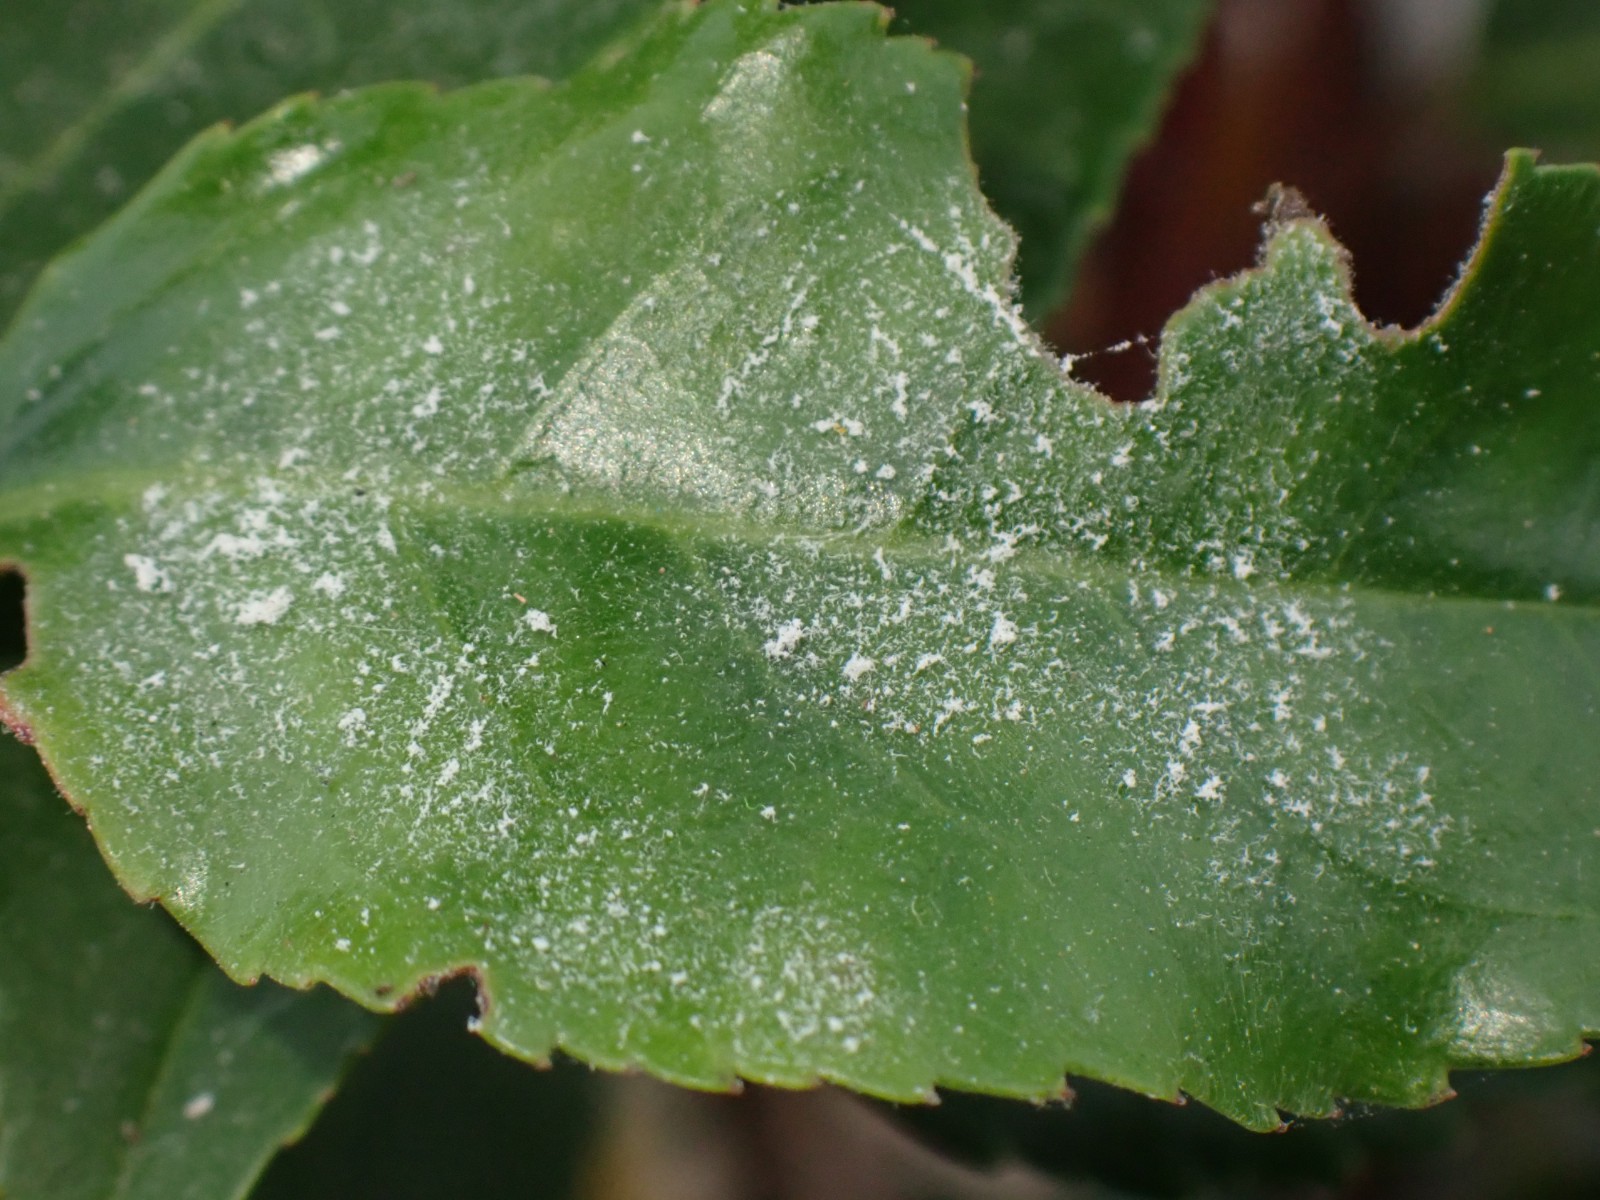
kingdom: Fungi
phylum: Ascomycota
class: Leotiomycetes
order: Helotiales
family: Erysiphaceae
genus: Podosphaera
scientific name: Podosphaera
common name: meldug
